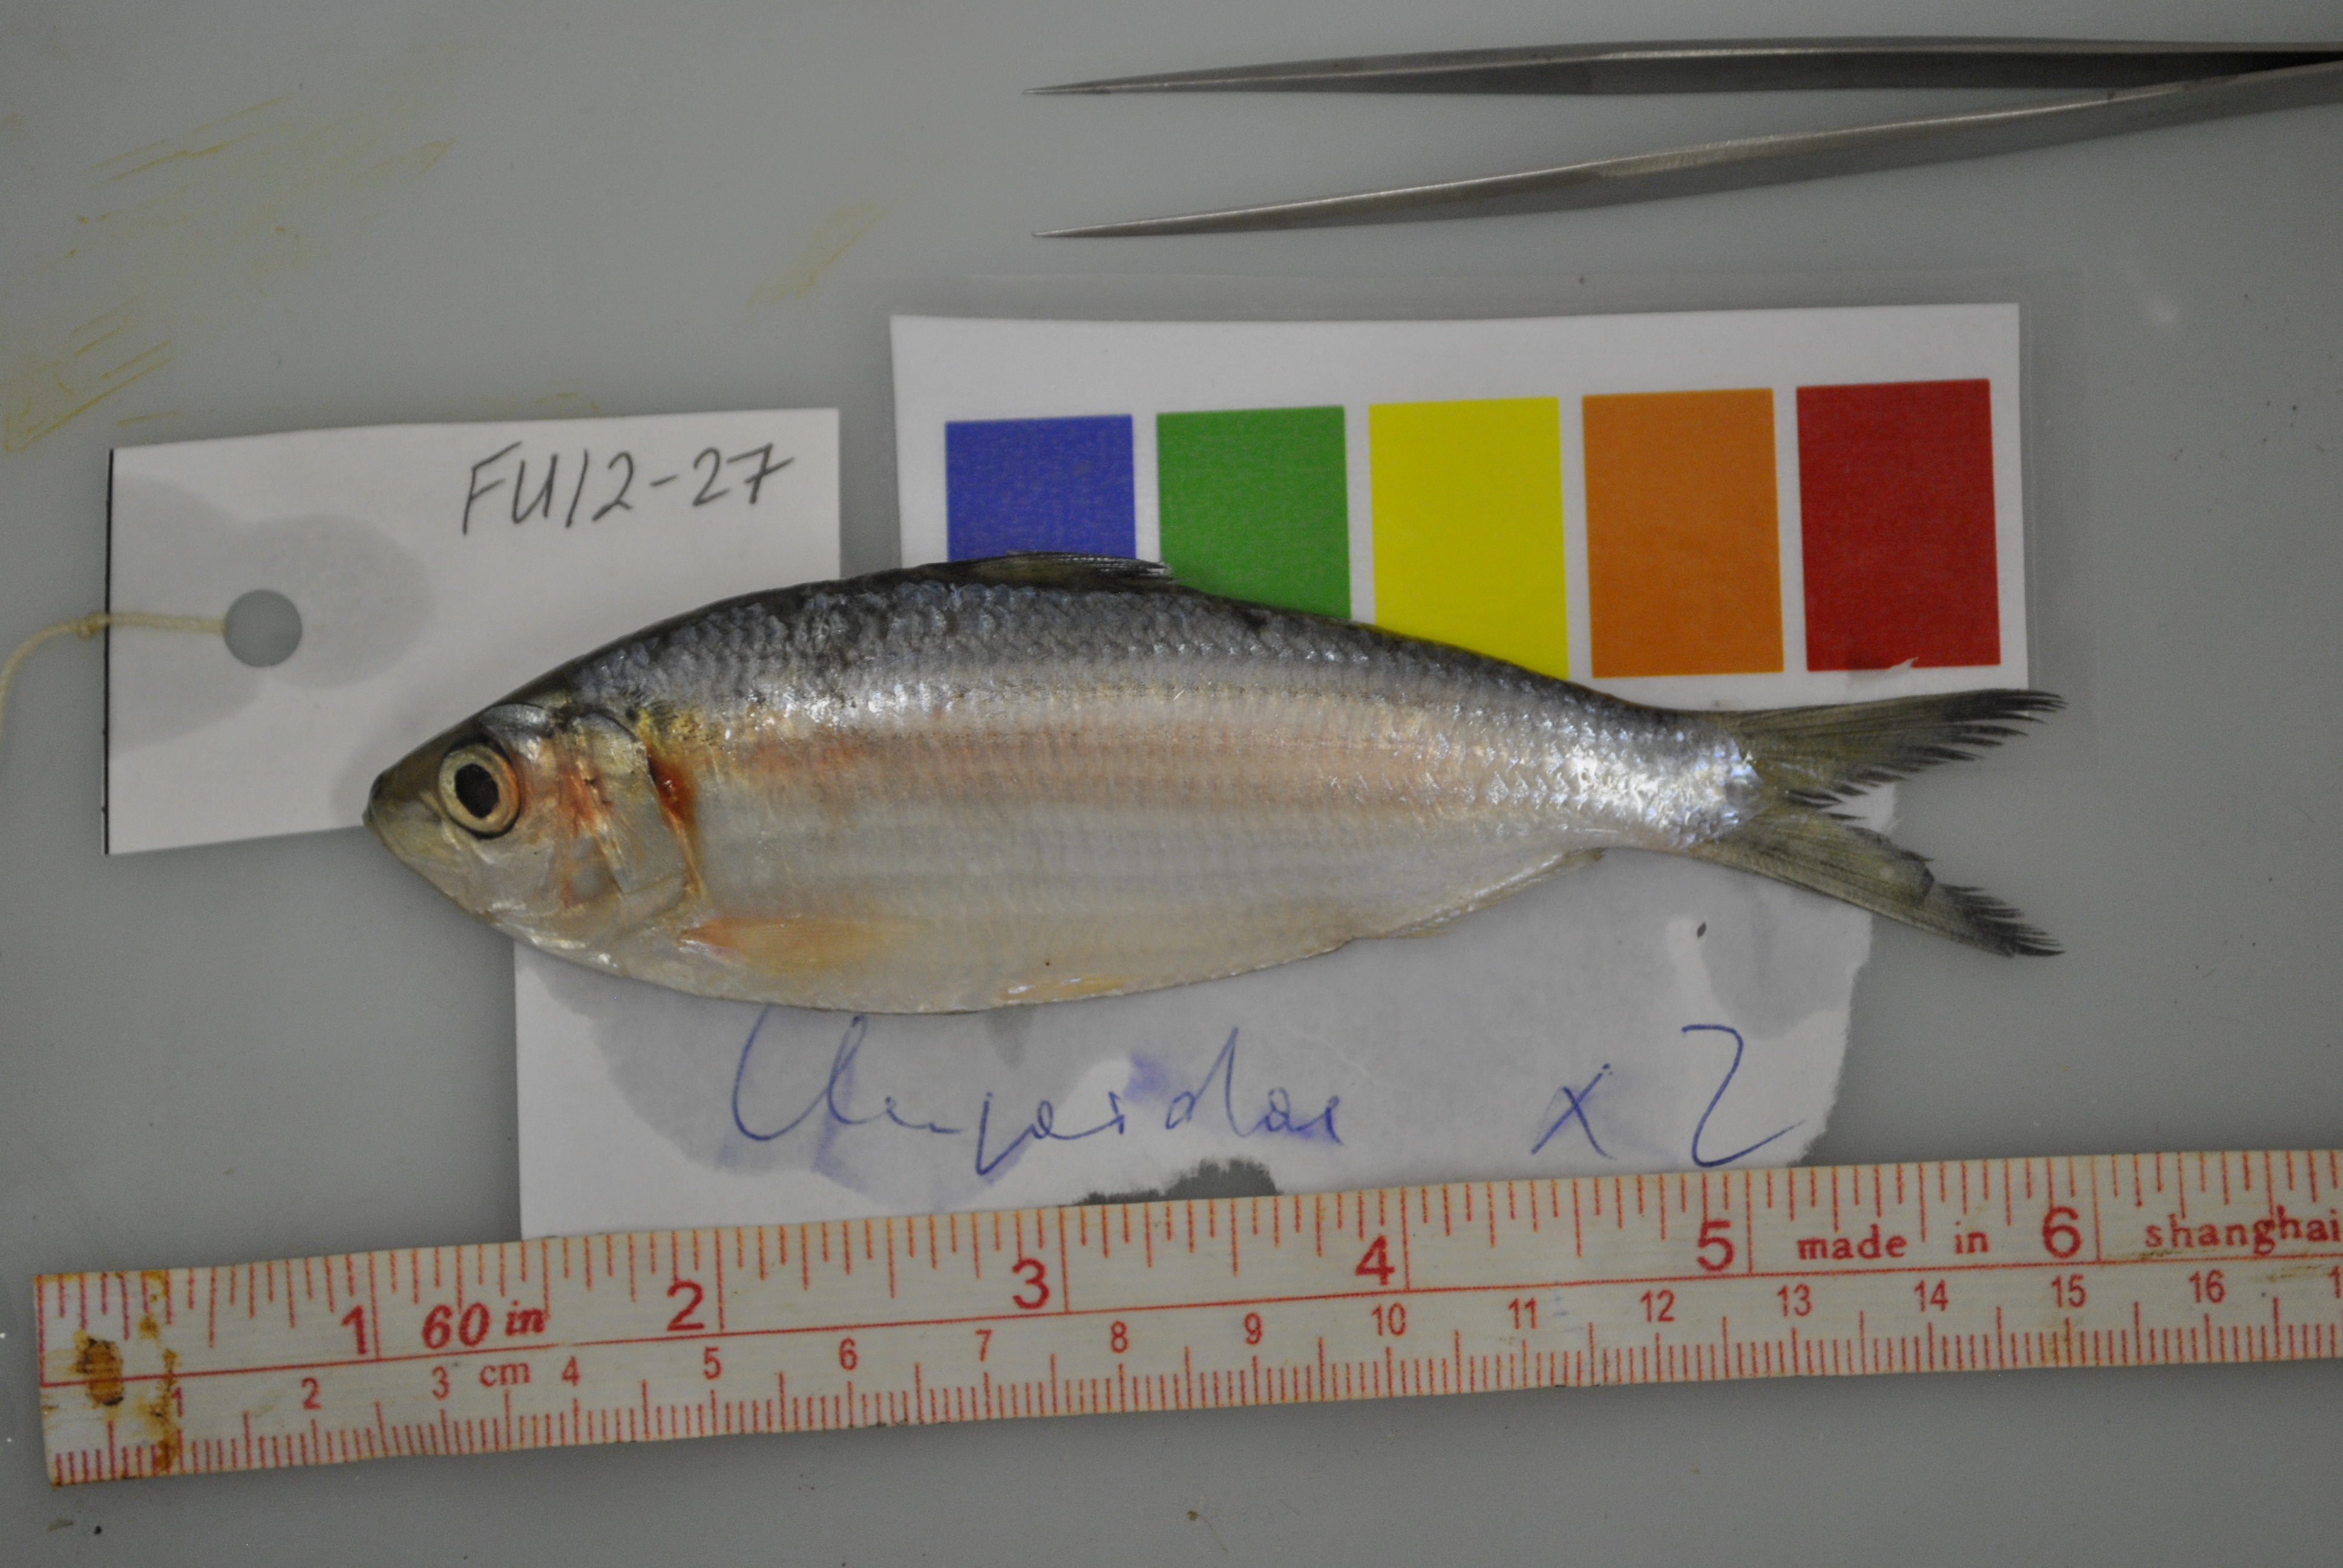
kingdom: Animalia
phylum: Chordata
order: Clupeiformes
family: Clupeidae
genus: Hilsa
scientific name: Hilsa kelee
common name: Kelee shad
